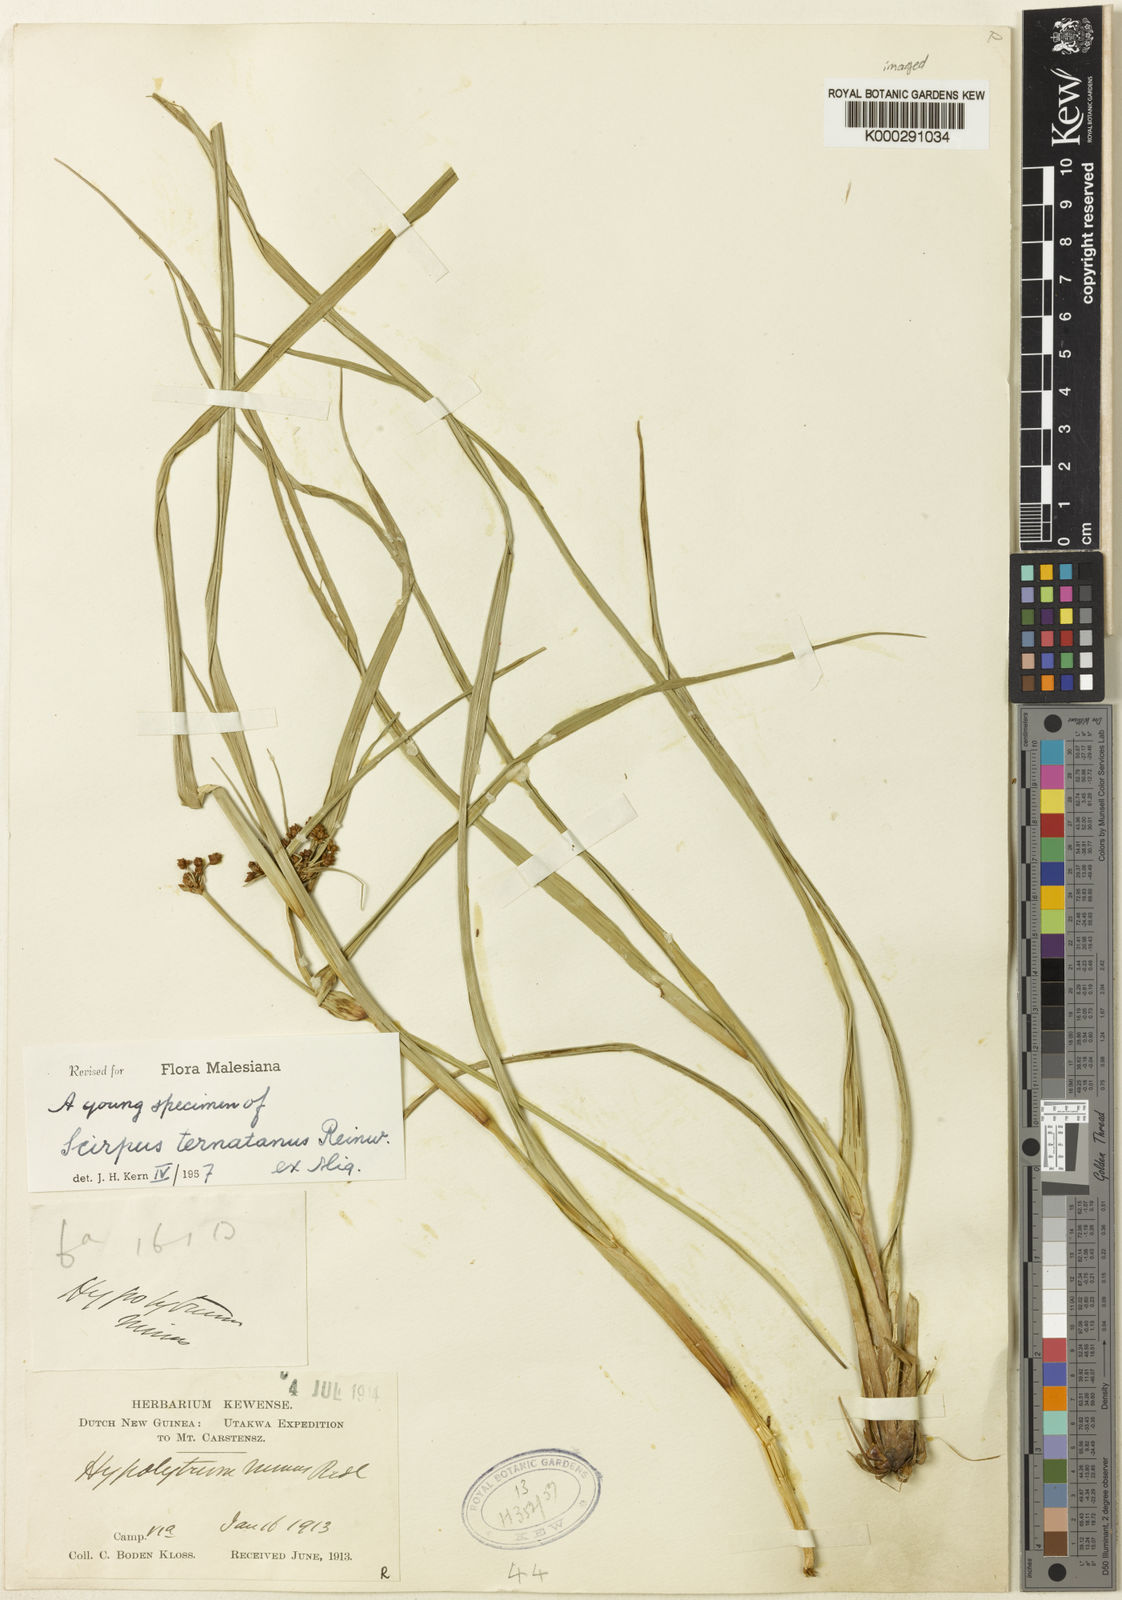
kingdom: Plantae
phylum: Tracheophyta
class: Liliopsida
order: Poales
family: Cyperaceae
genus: Scirpus
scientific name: Scirpus ternatanus
